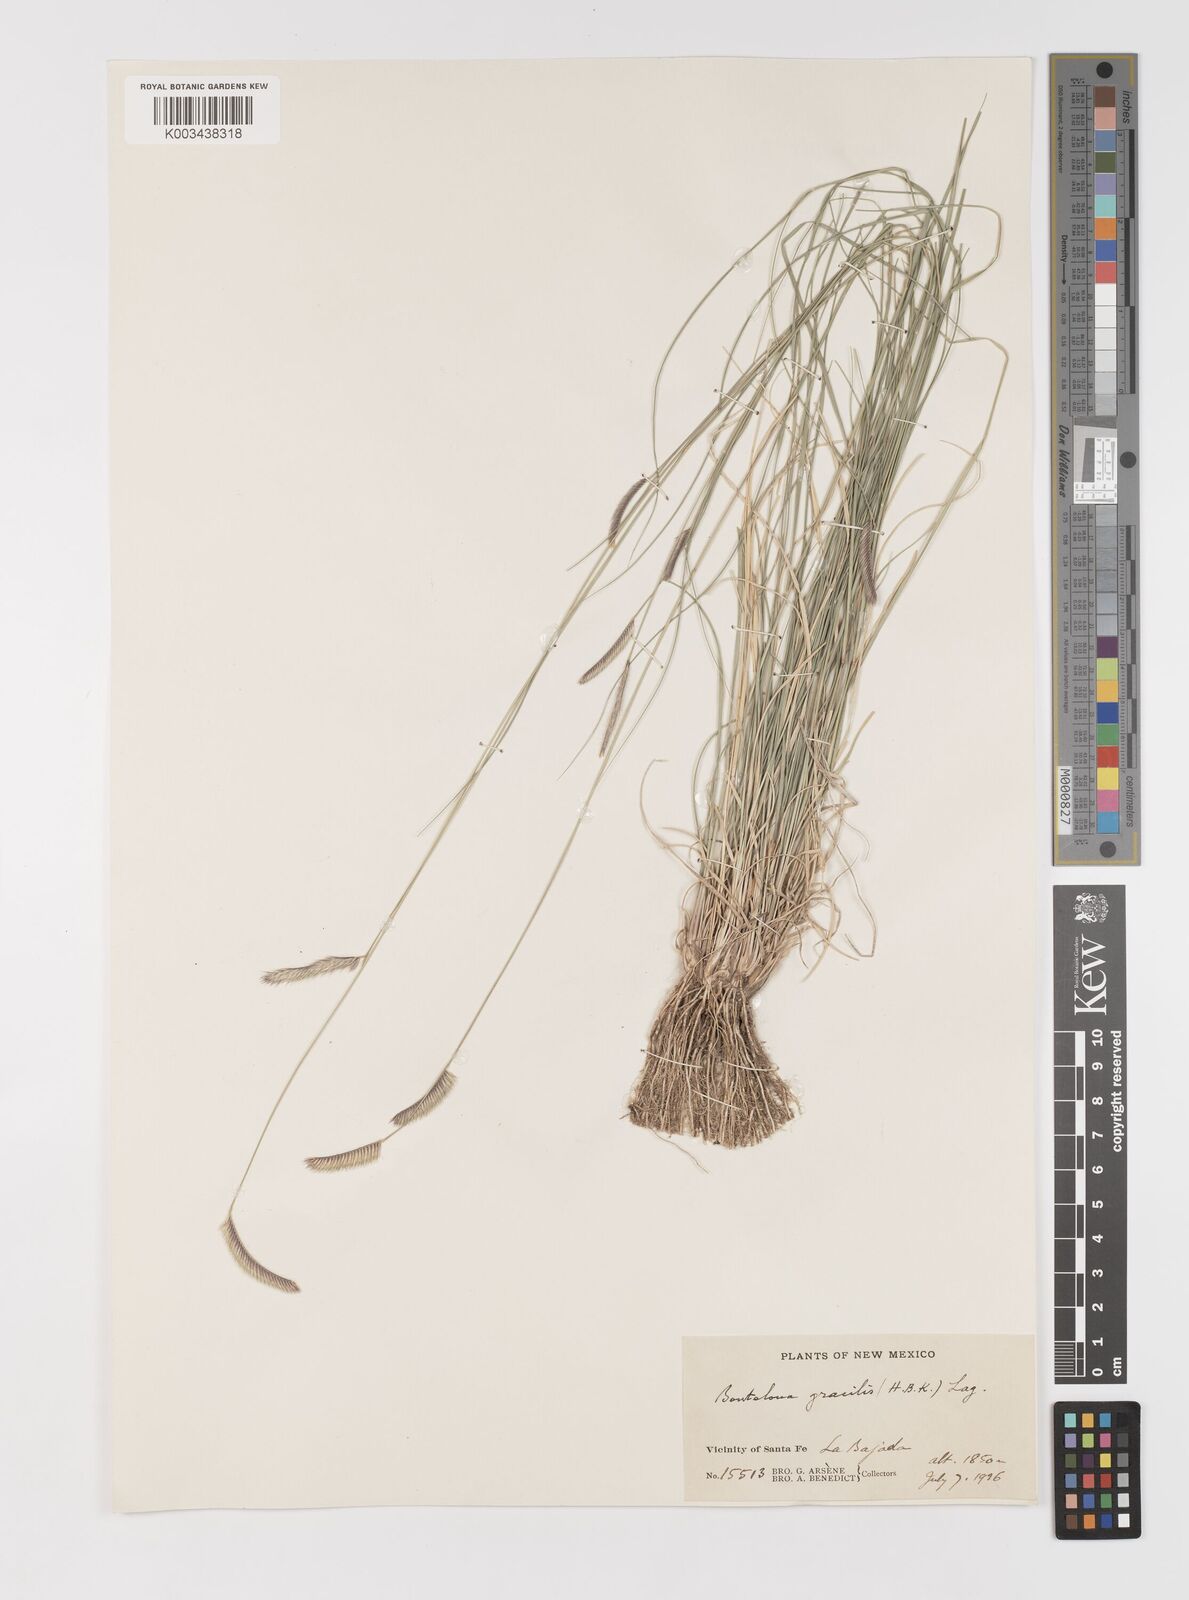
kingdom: Plantae
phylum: Tracheophyta
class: Liliopsida
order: Poales
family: Poaceae
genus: Bouteloua
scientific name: Bouteloua
